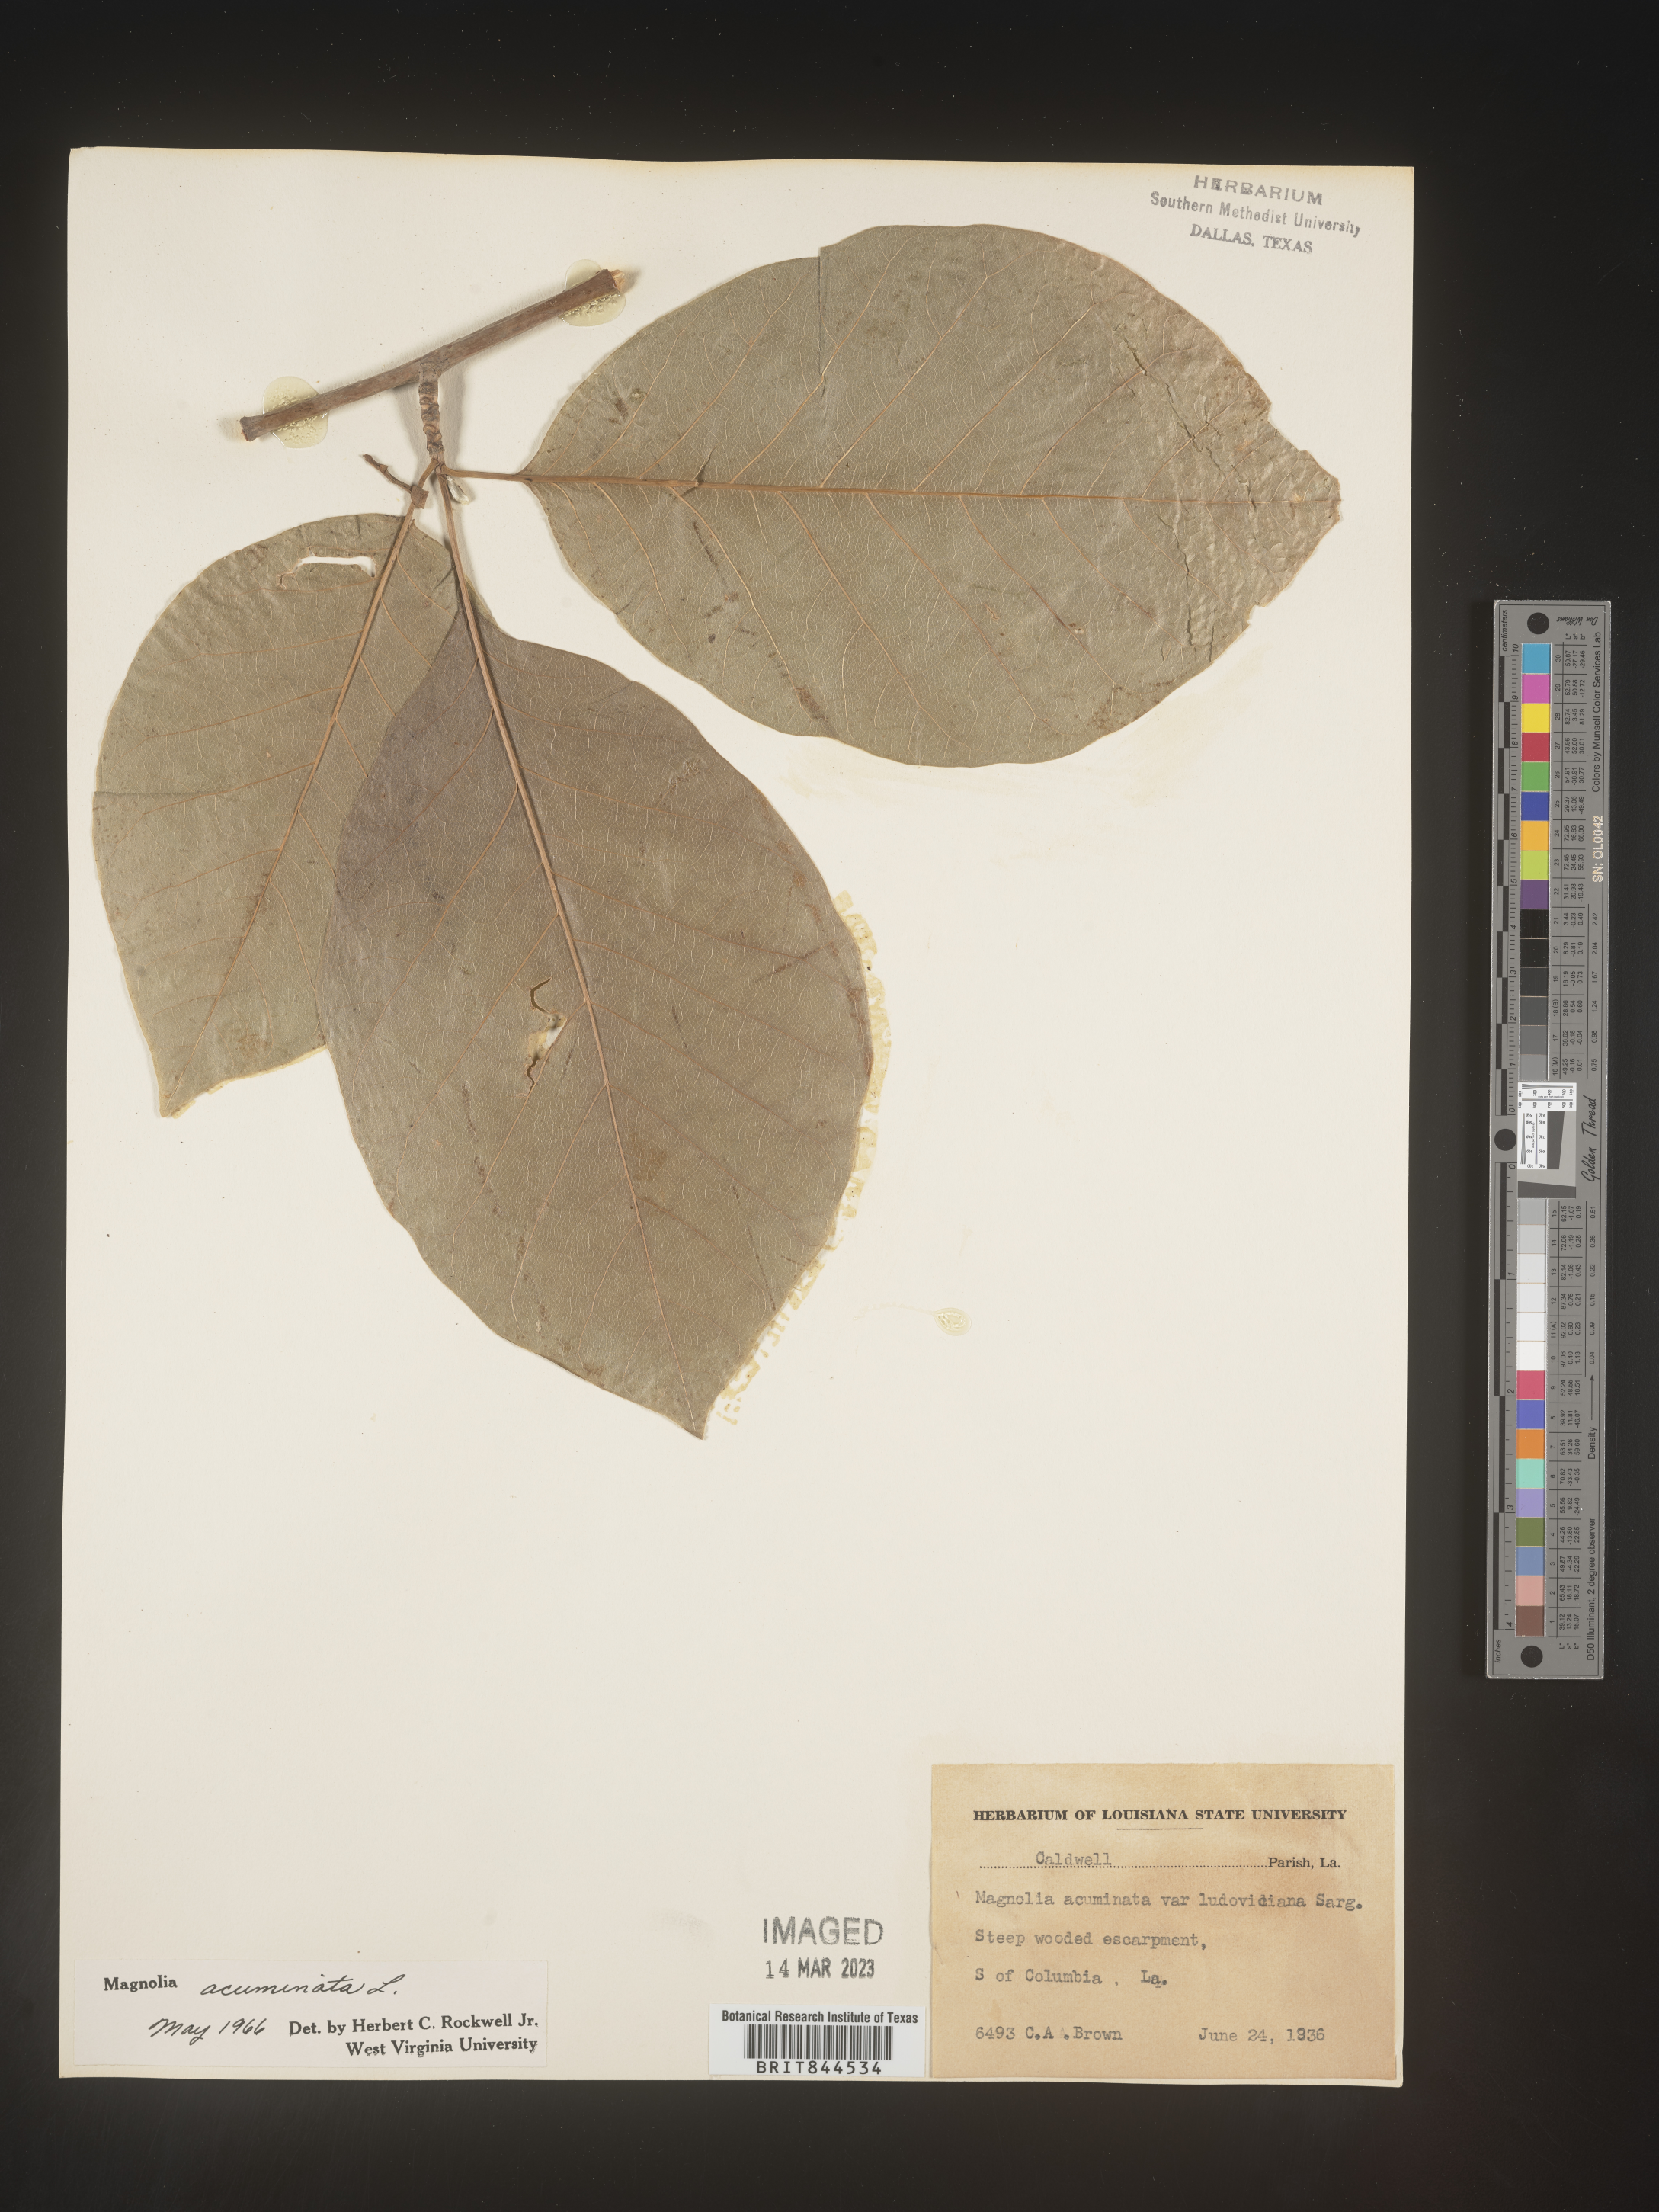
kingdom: Plantae
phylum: Tracheophyta
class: Magnoliopsida
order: Magnoliales
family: Magnoliaceae
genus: Magnolia
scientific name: Magnolia acuminata
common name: Cucumber magnolia
